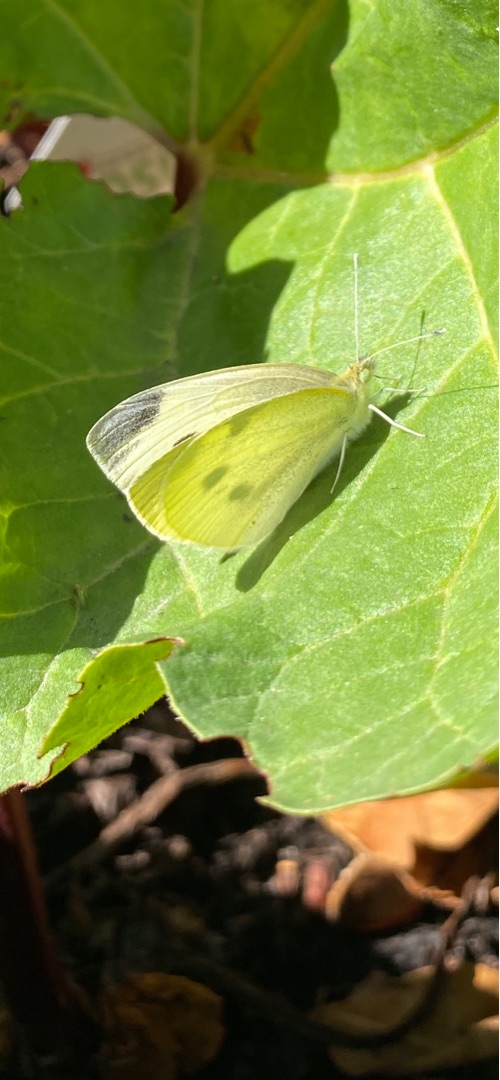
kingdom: Animalia
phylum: Arthropoda
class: Insecta
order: Lepidoptera
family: Pieridae
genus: Pieris
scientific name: Pieris rapae
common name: Lille kålsommerfugl
